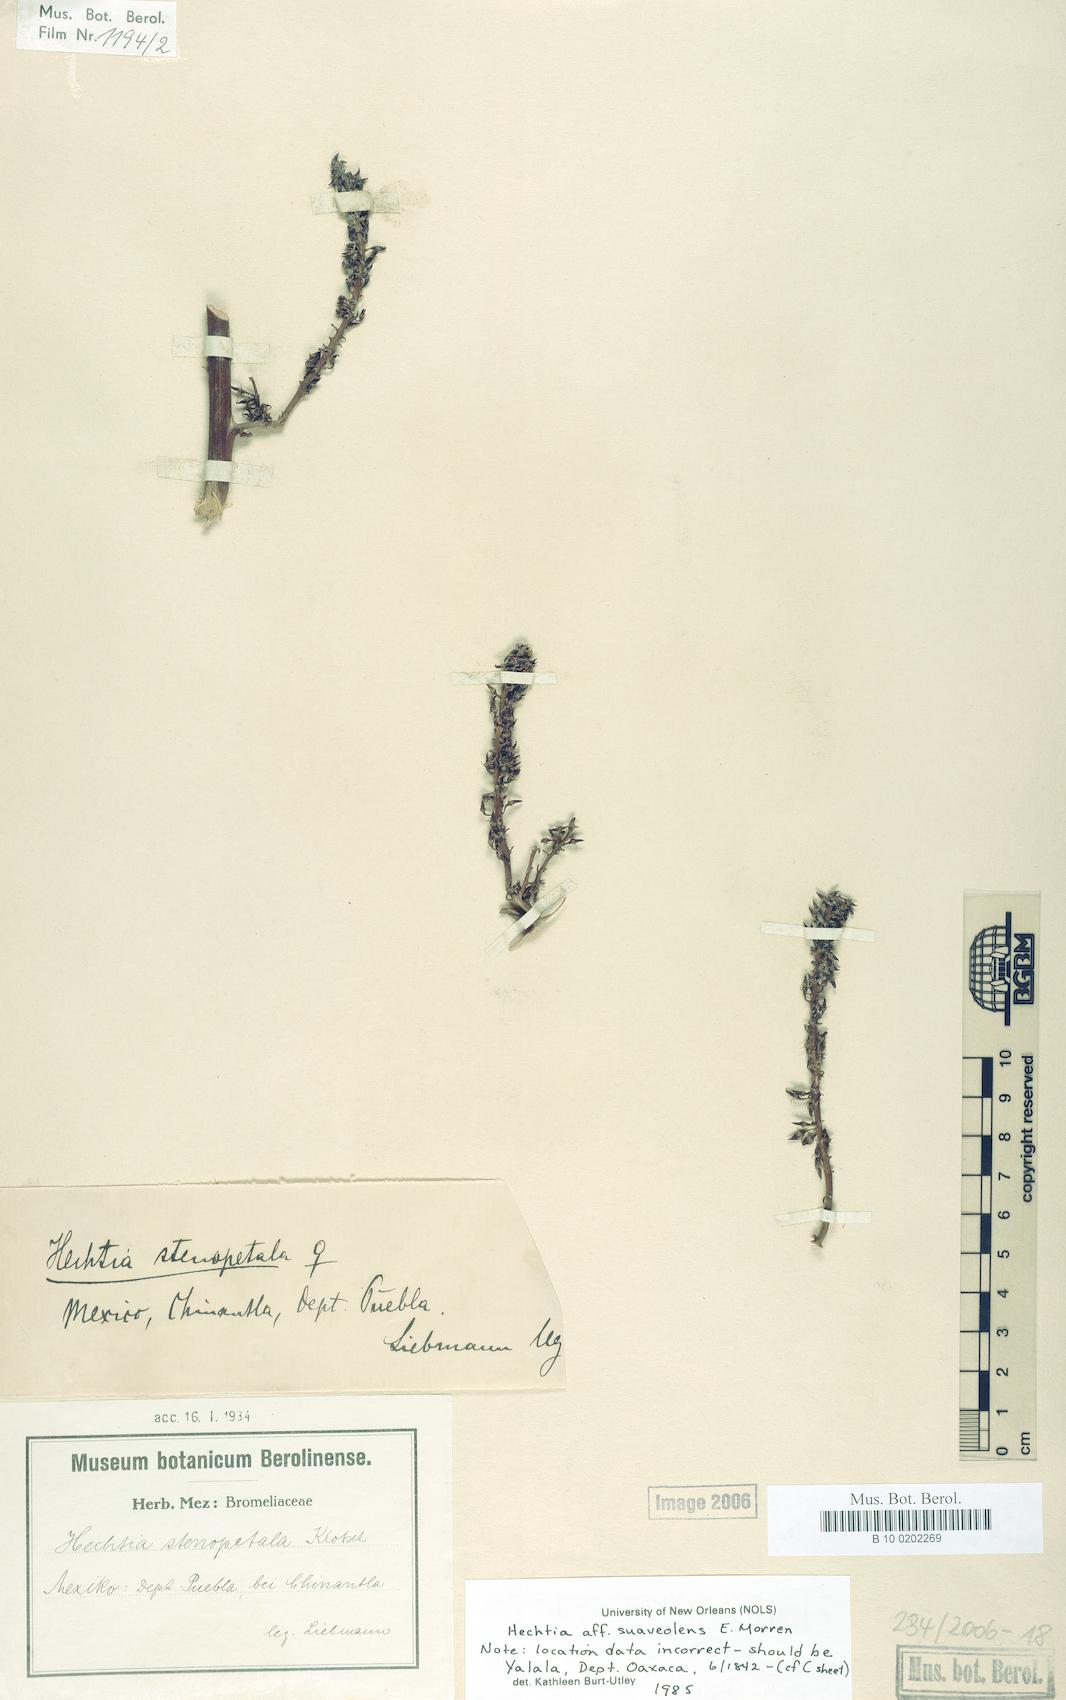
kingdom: Plantae
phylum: Tracheophyta
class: Liliopsida
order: Poales
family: Bromeliaceae
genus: Hechtia
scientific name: Hechtia suaveolens
